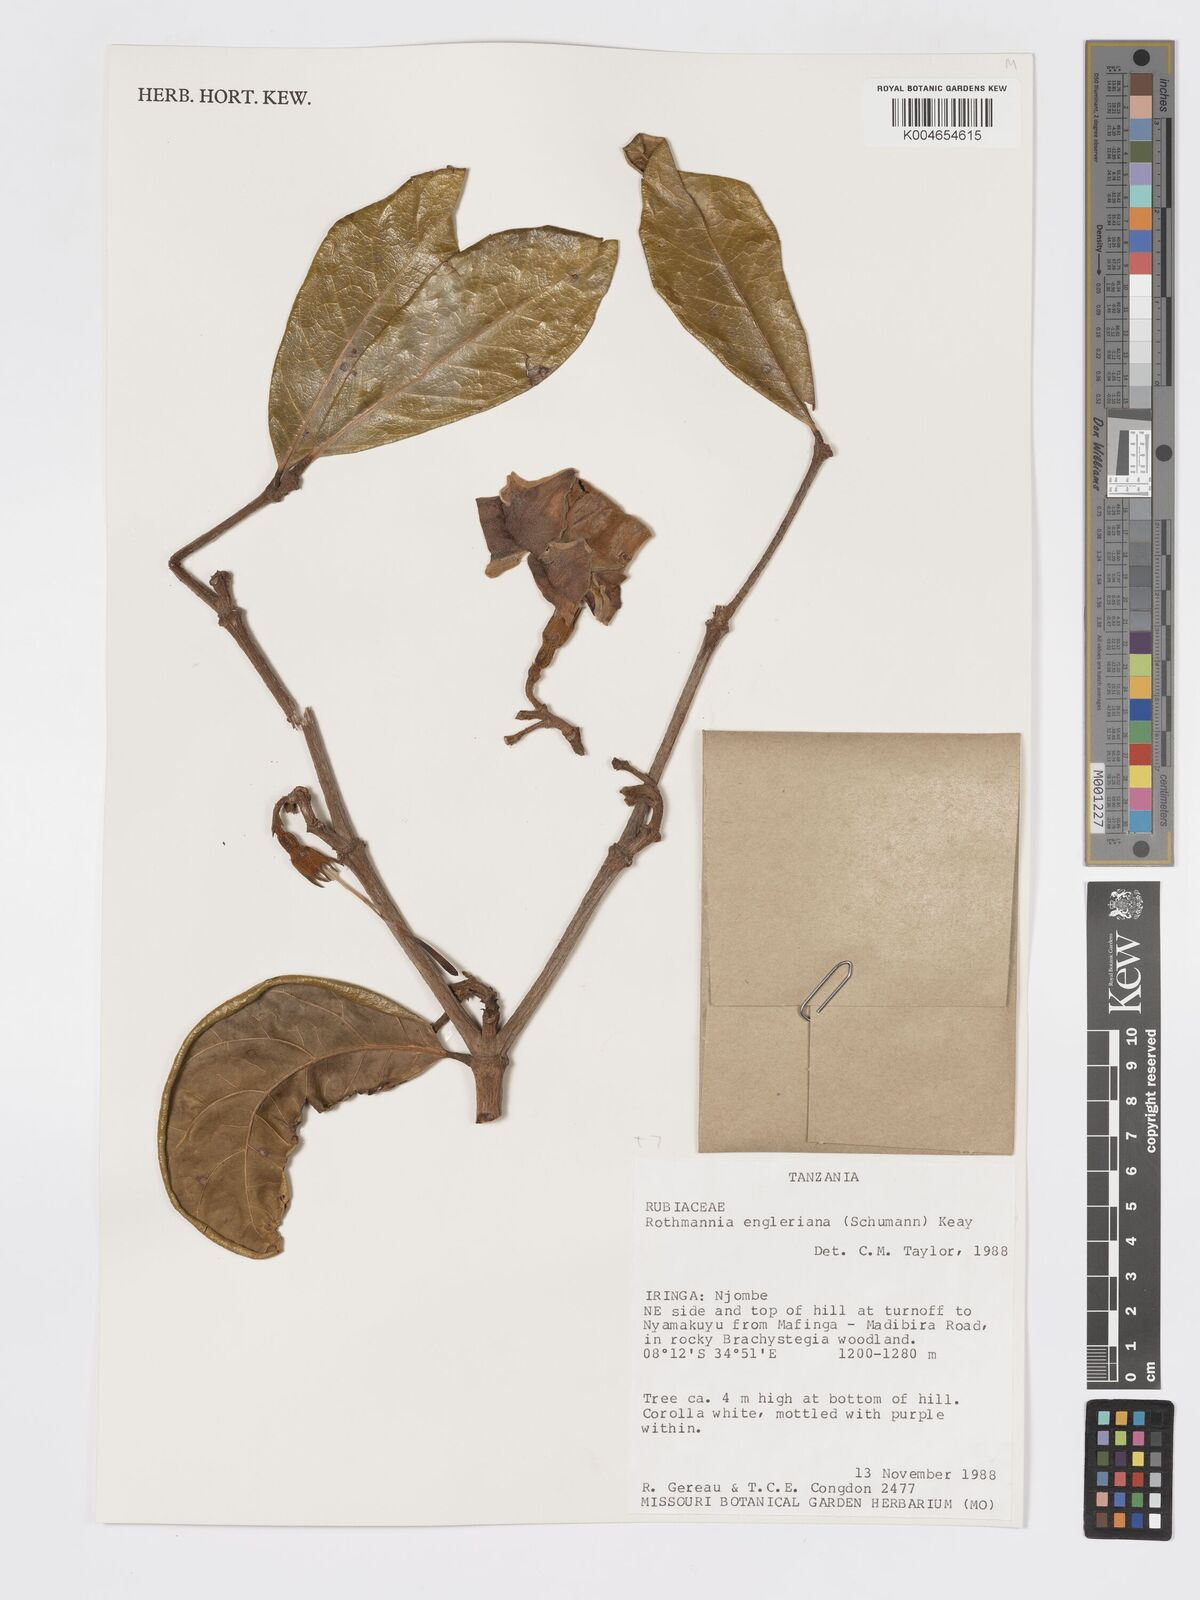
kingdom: Plantae
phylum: Tracheophyta
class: Magnoliopsida
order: Gentianales
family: Rubiaceae
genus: Rothmannia
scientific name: Rothmannia engleriana
